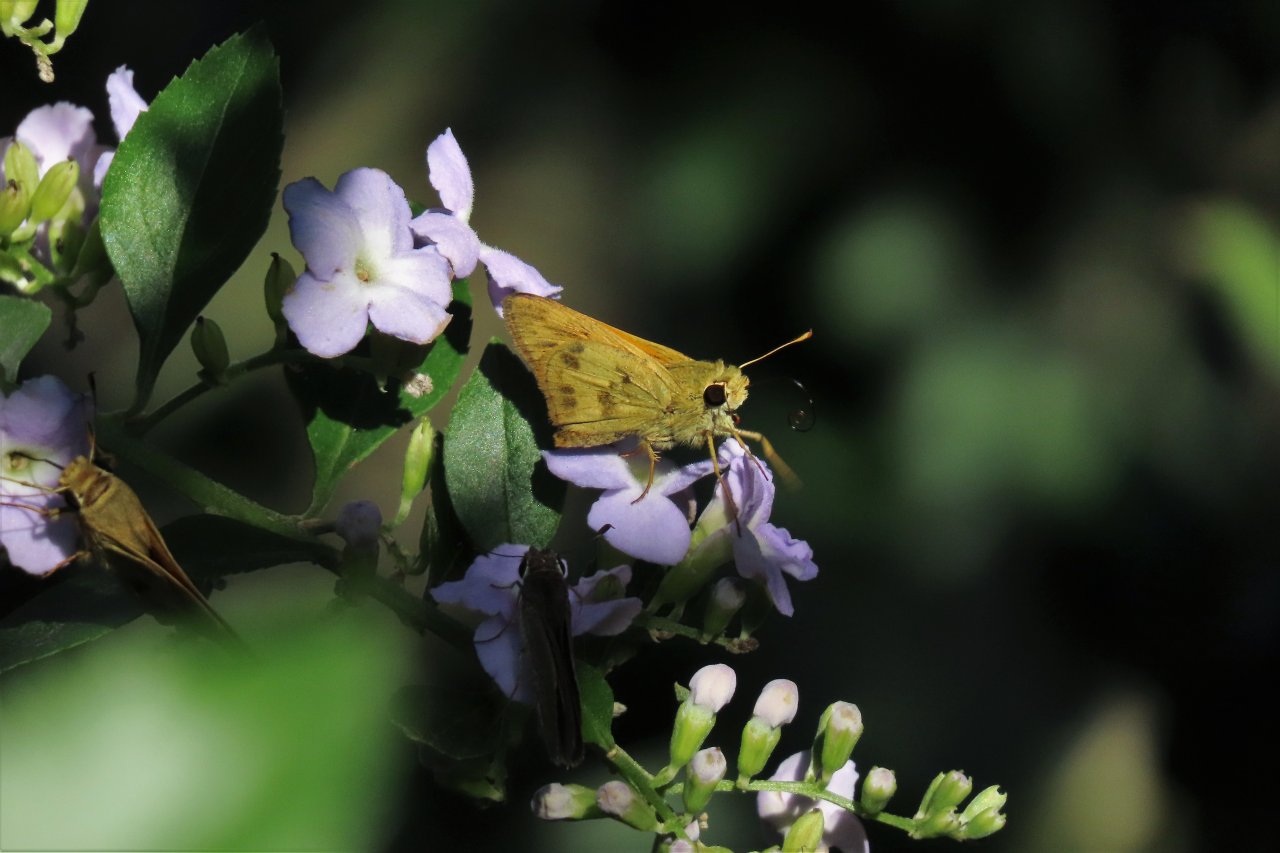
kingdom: Animalia
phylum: Arthropoda
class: Insecta
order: Lepidoptera
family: Hesperiidae
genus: Polites
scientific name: Polites vibex
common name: Whirlabout
